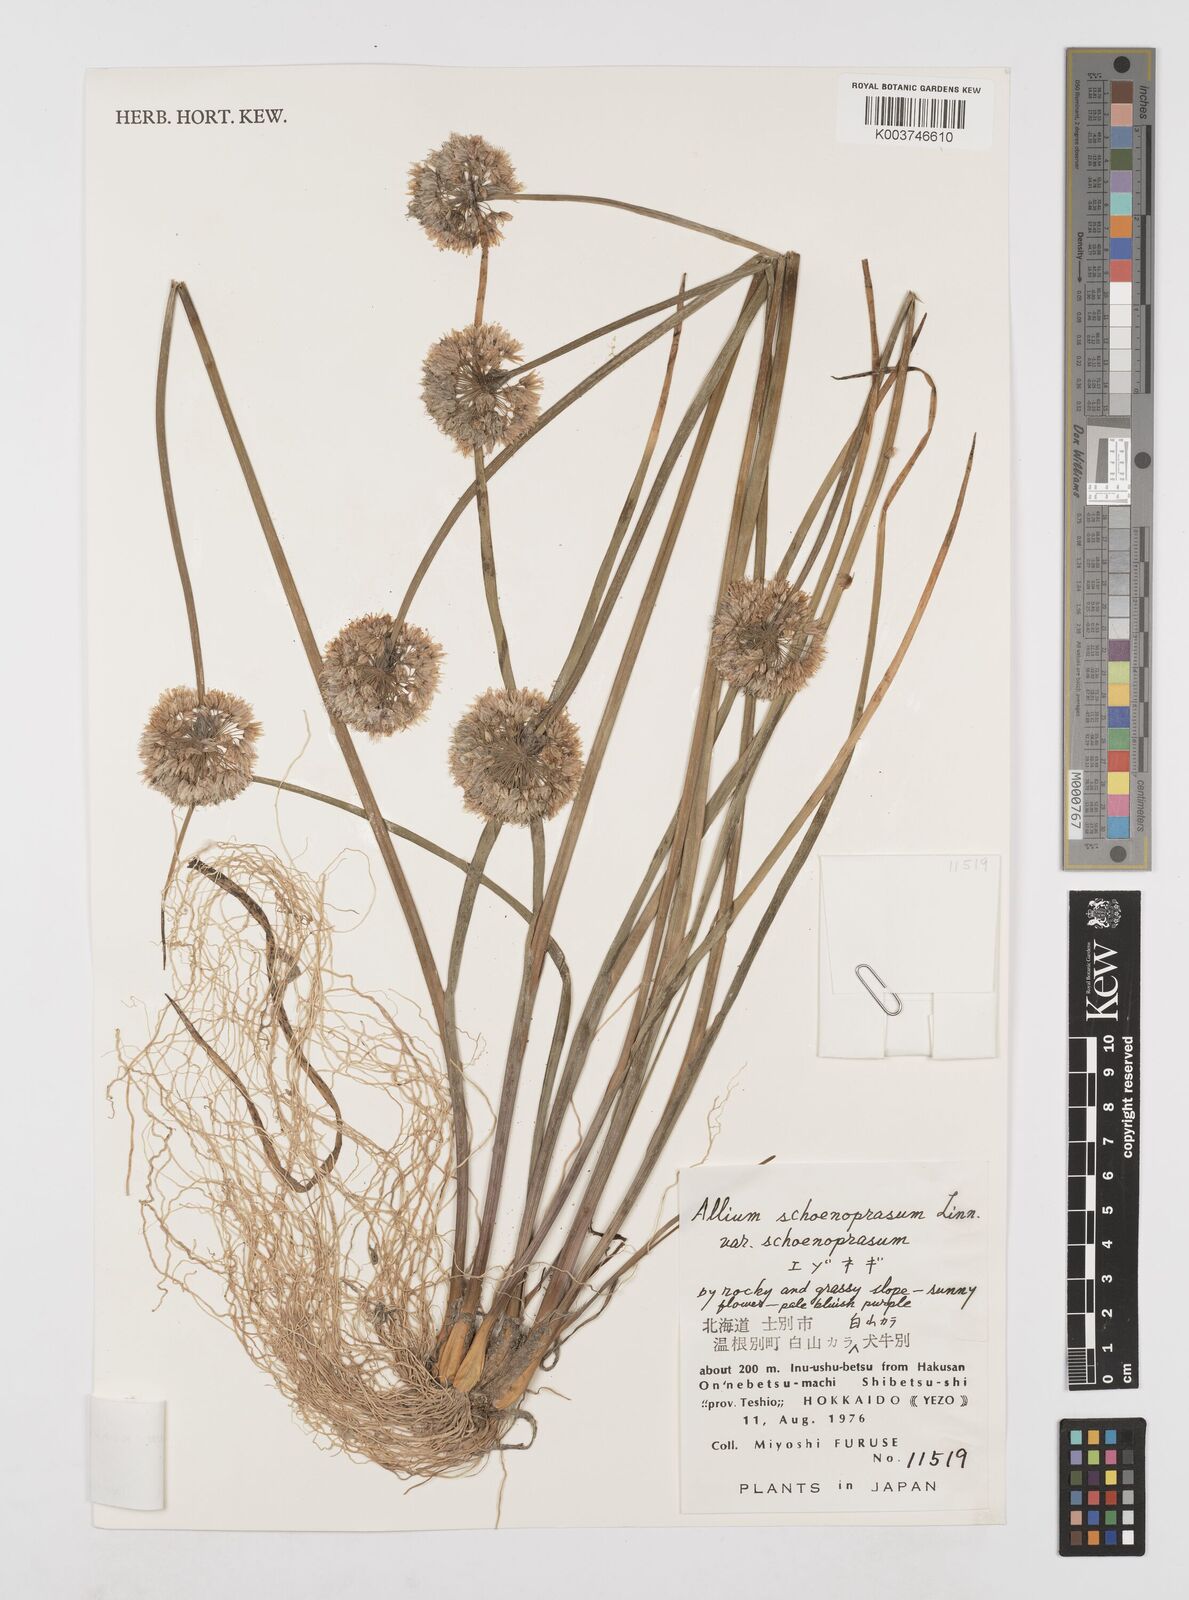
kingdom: Plantae
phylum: Tracheophyta
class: Liliopsida
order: Asparagales
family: Amaryllidaceae
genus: Allium
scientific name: Allium maximowiczii
